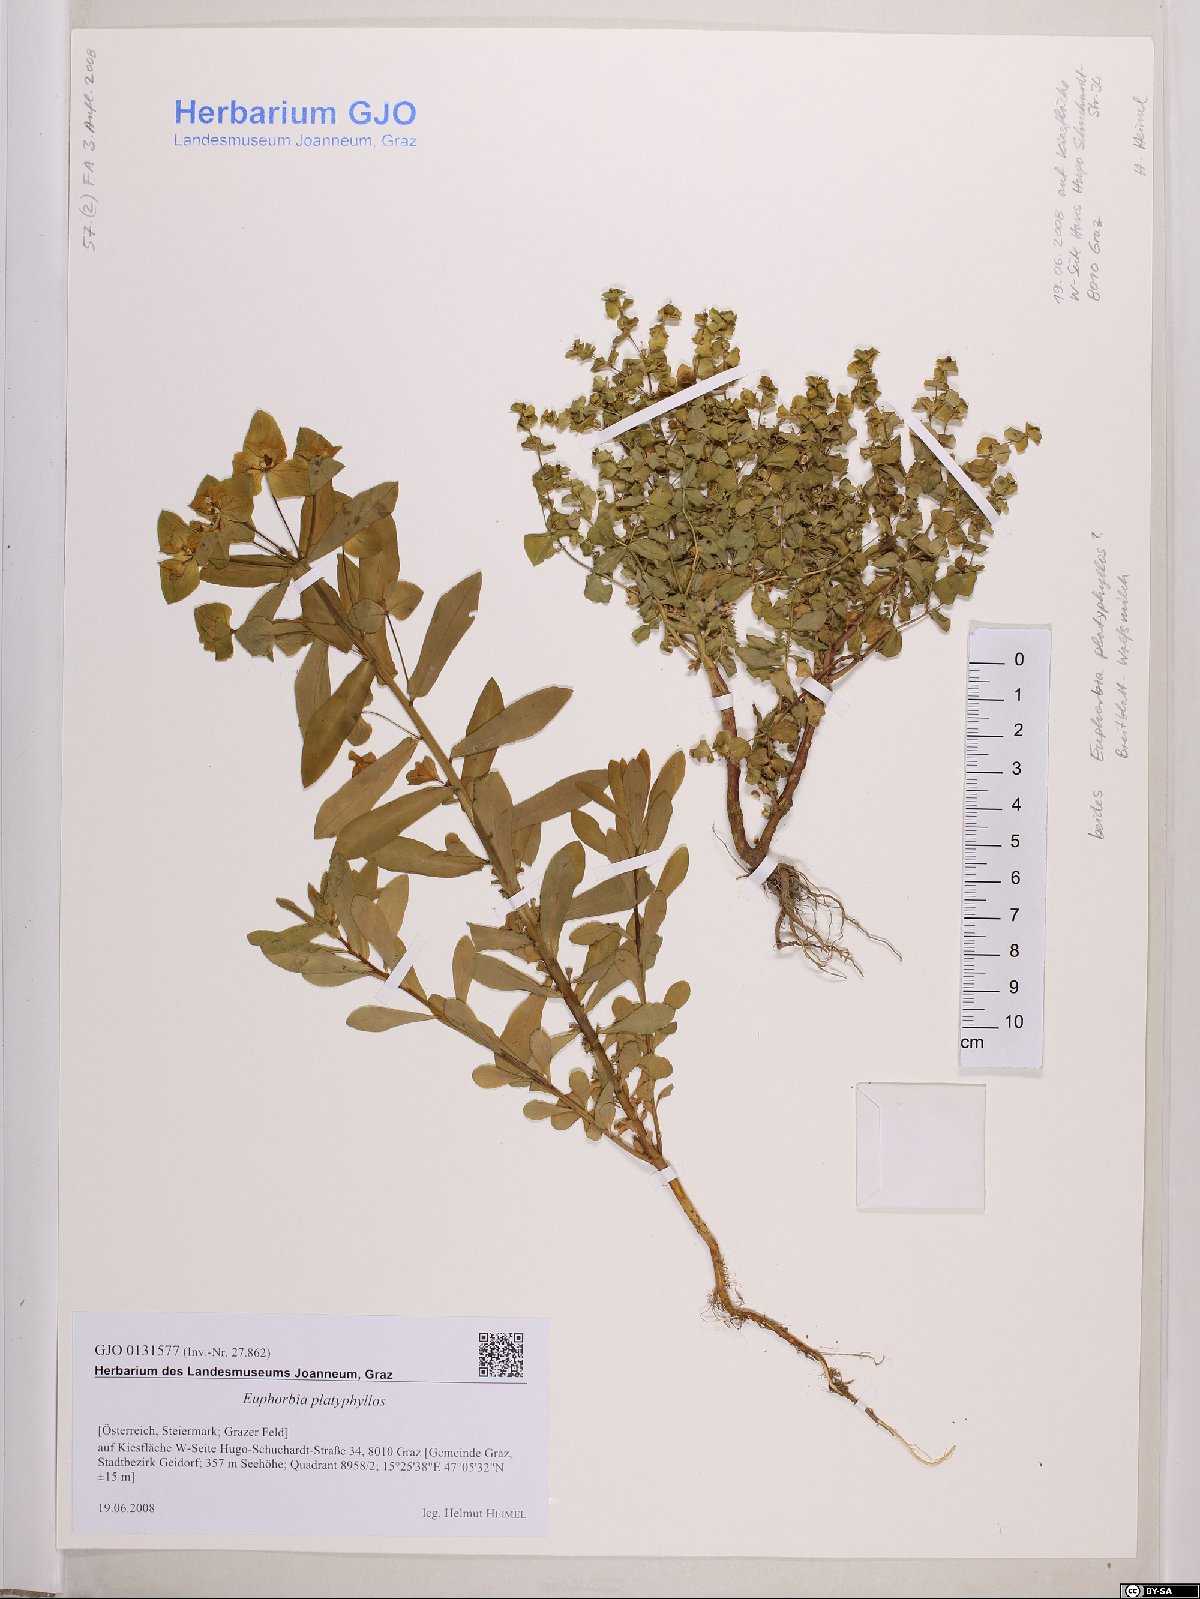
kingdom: Plantae
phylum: Tracheophyta
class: Magnoliopsida
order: Malpighiales
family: Euphorbiaceae
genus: Euphorbia
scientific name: Euphorbia platyphyllos
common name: Broad-leaved spurge
